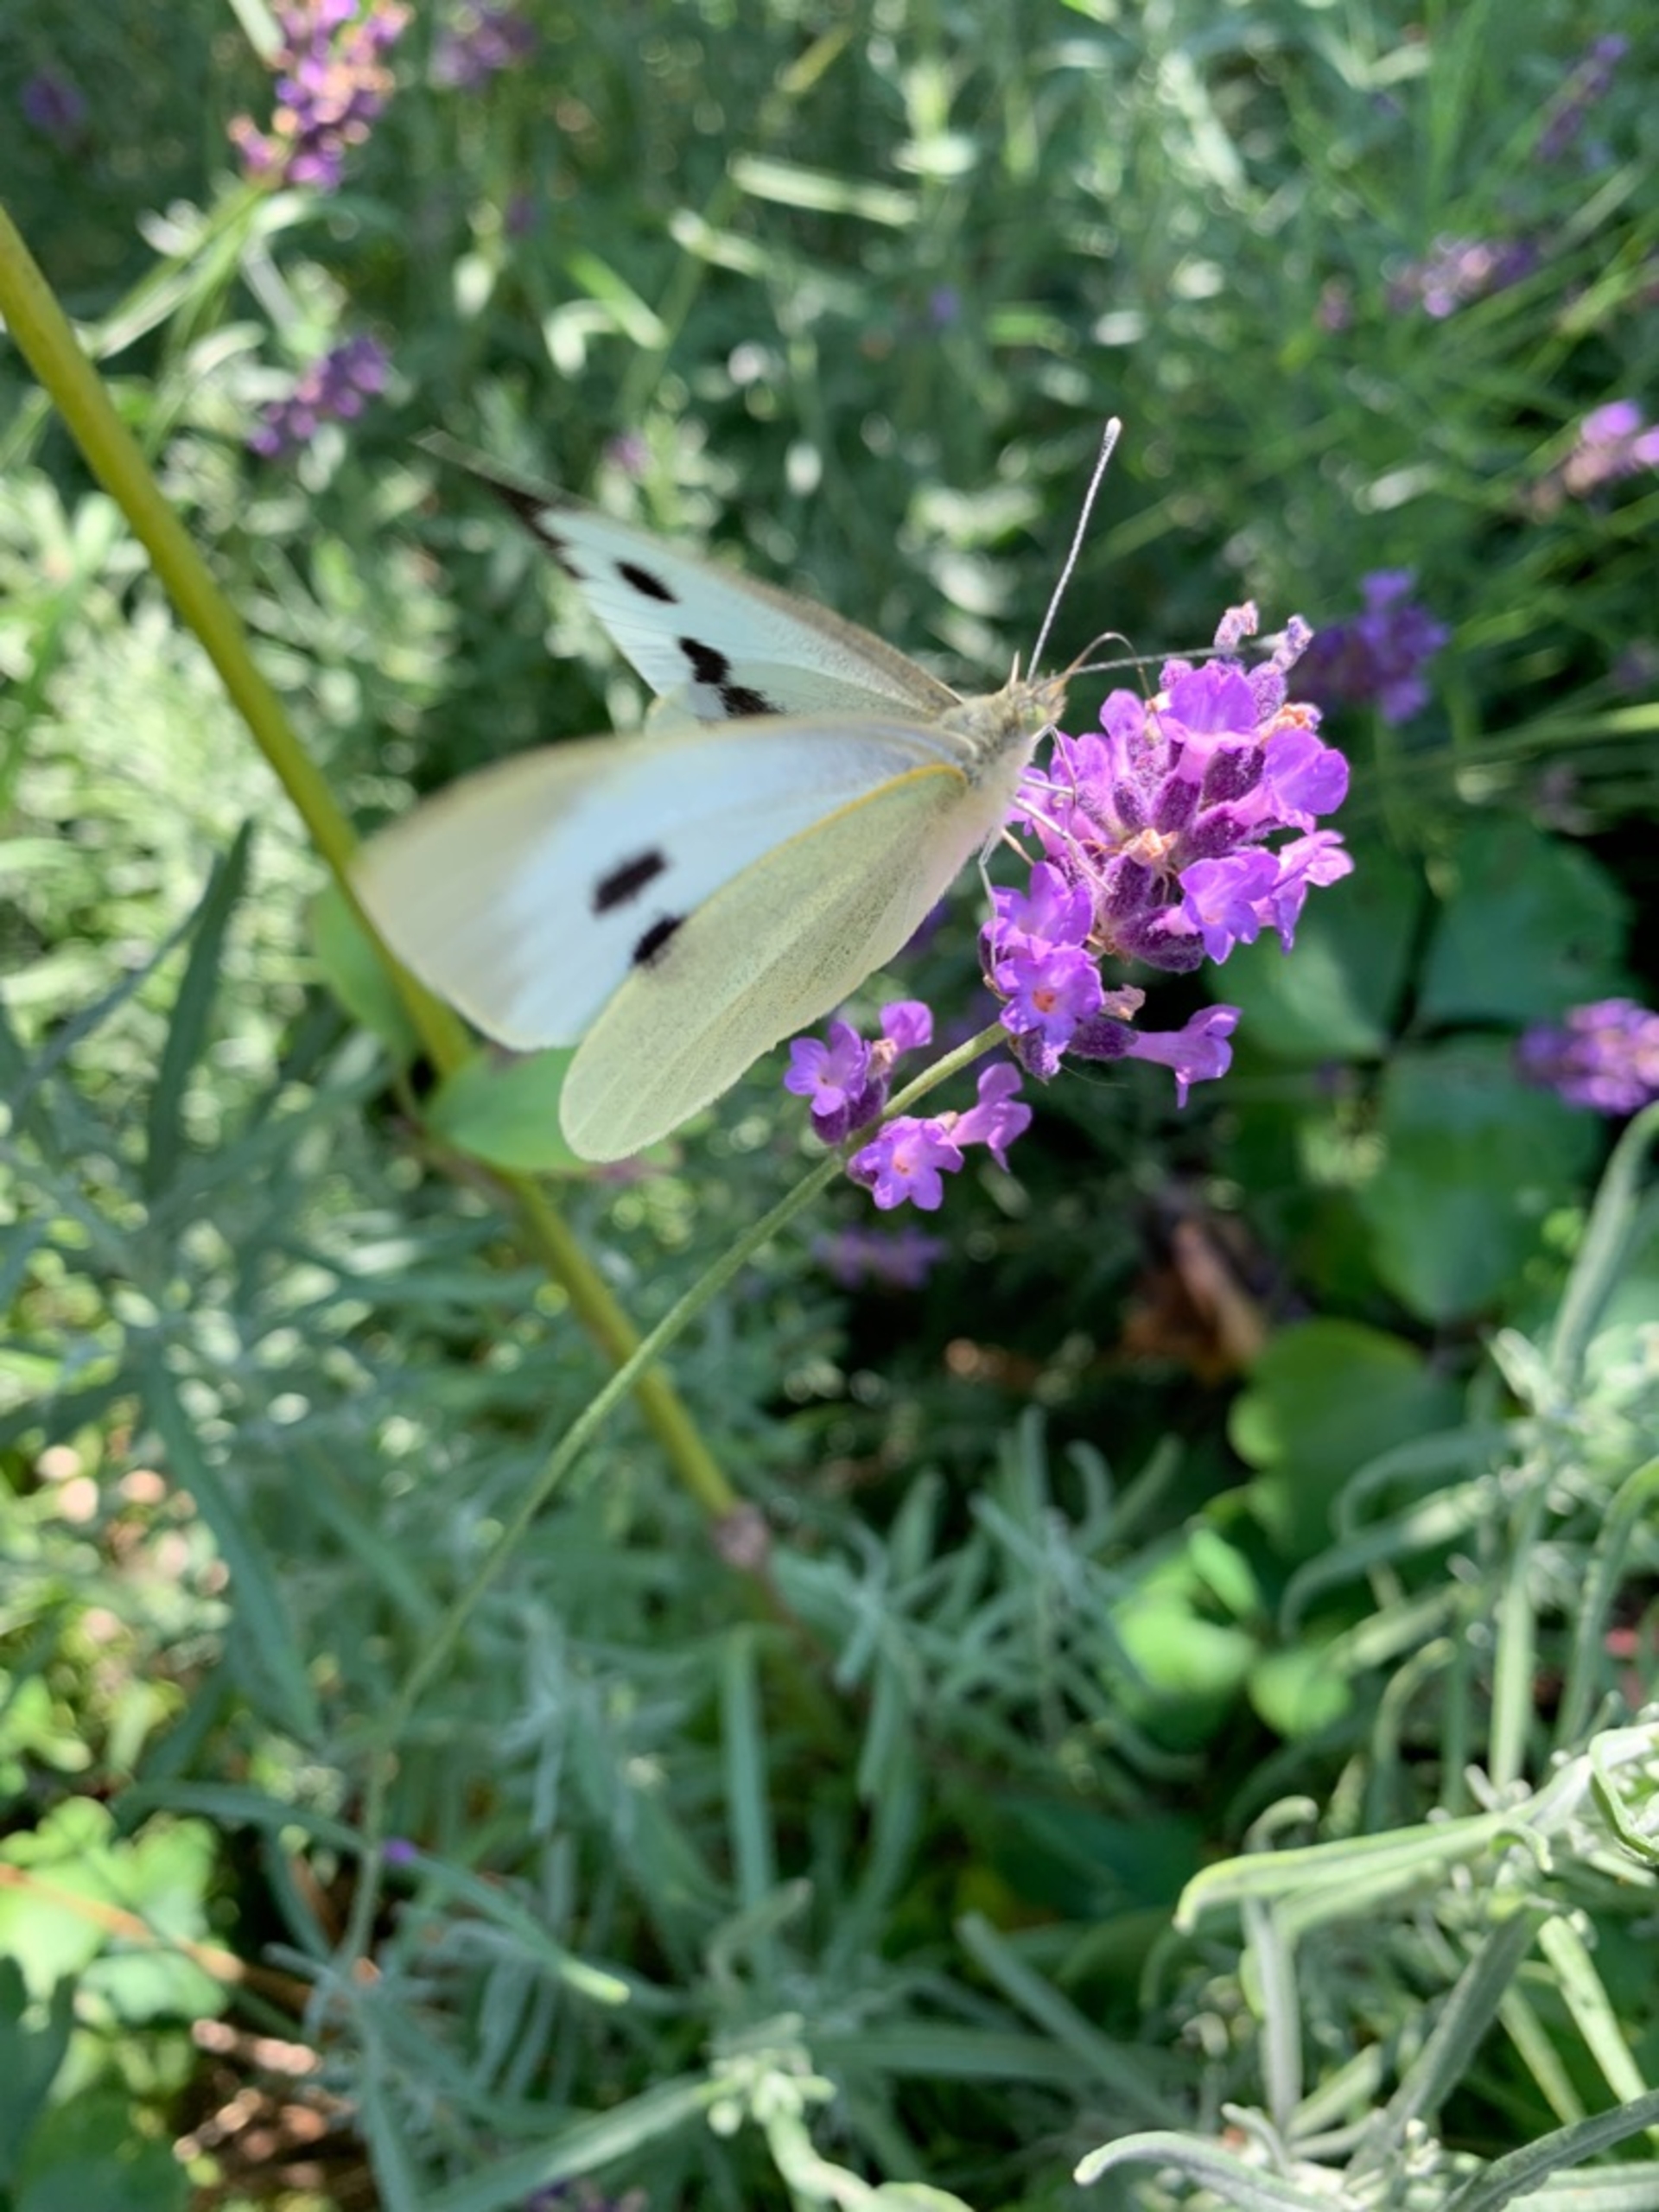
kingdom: Animalia
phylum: Arthropoda
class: Insecta
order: Lepidoptera
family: Pieridae
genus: Pieris
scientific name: Pieris brassicae
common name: Stor kålsommerfugl
